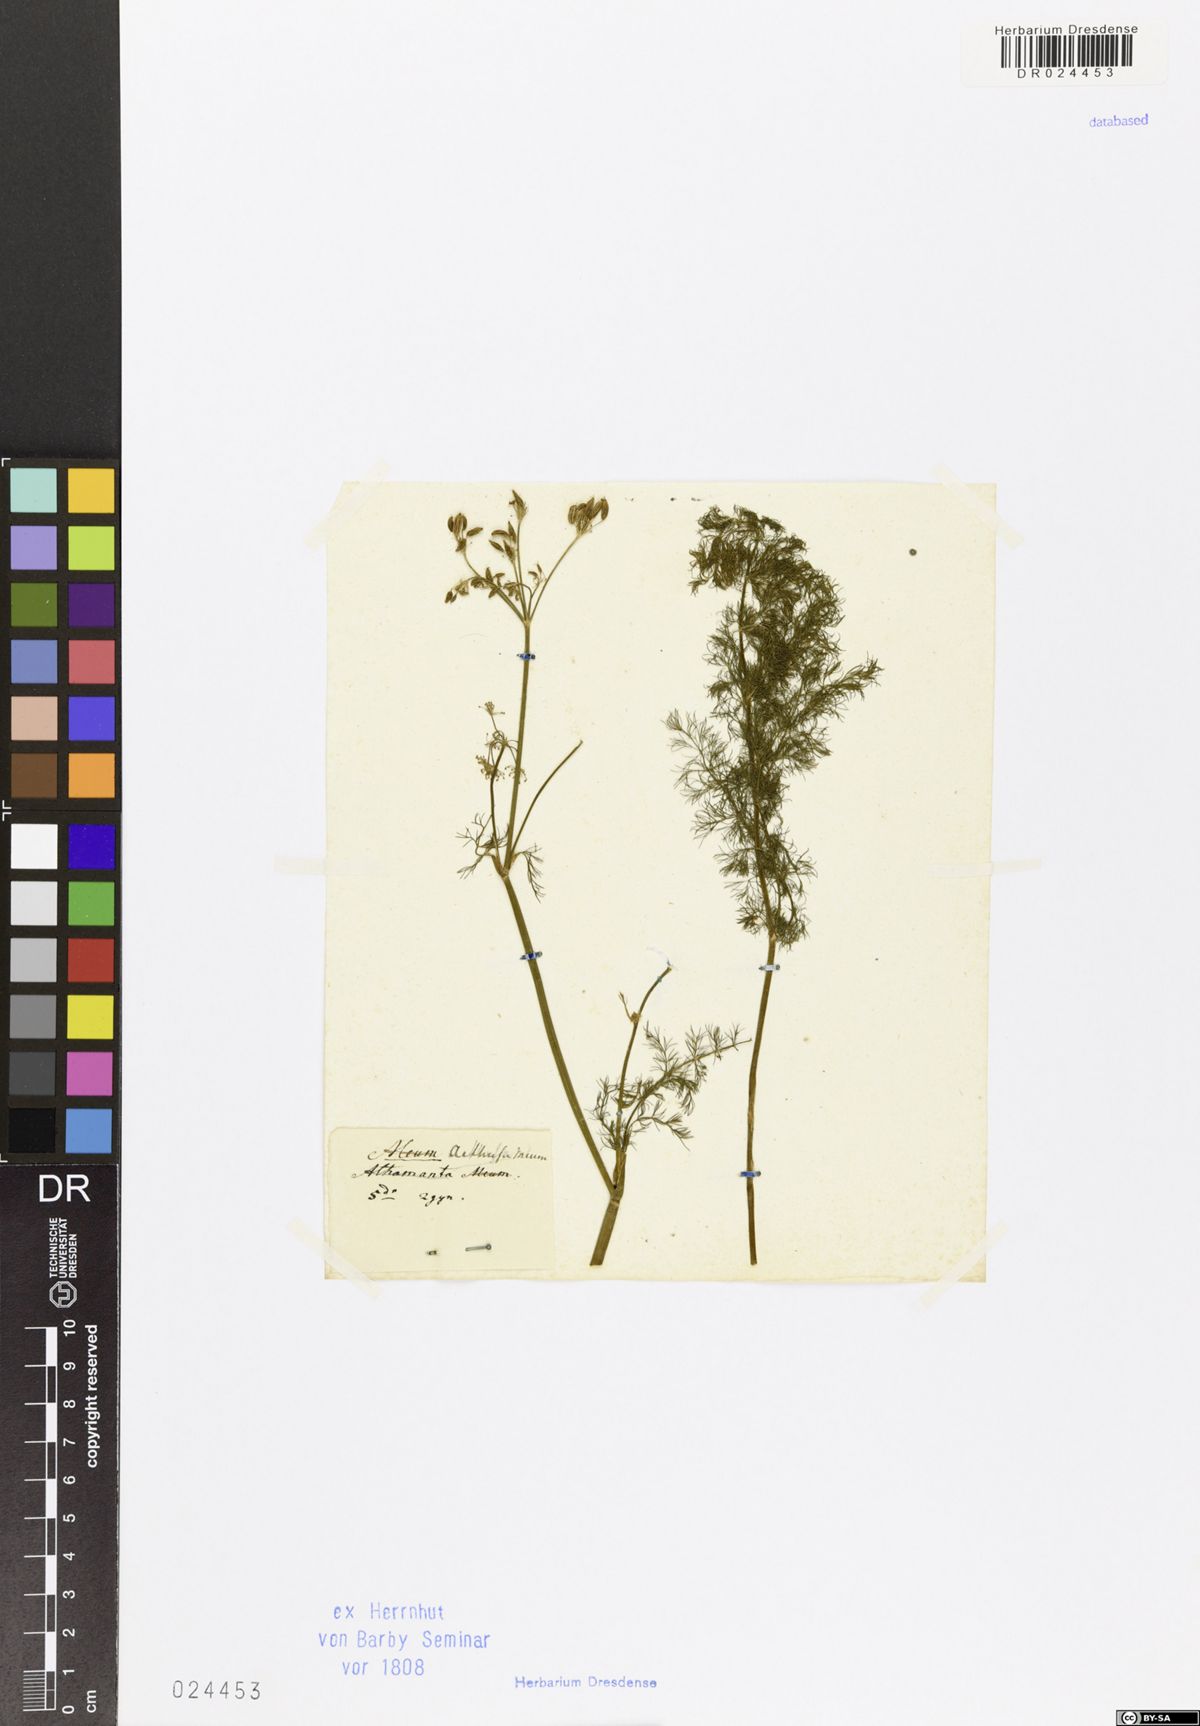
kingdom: Plantae
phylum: Tracheophyta
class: Magnoliopsida
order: Apiales
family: Apiaceae
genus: Meum
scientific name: Meum athamanticum
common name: Spignel
